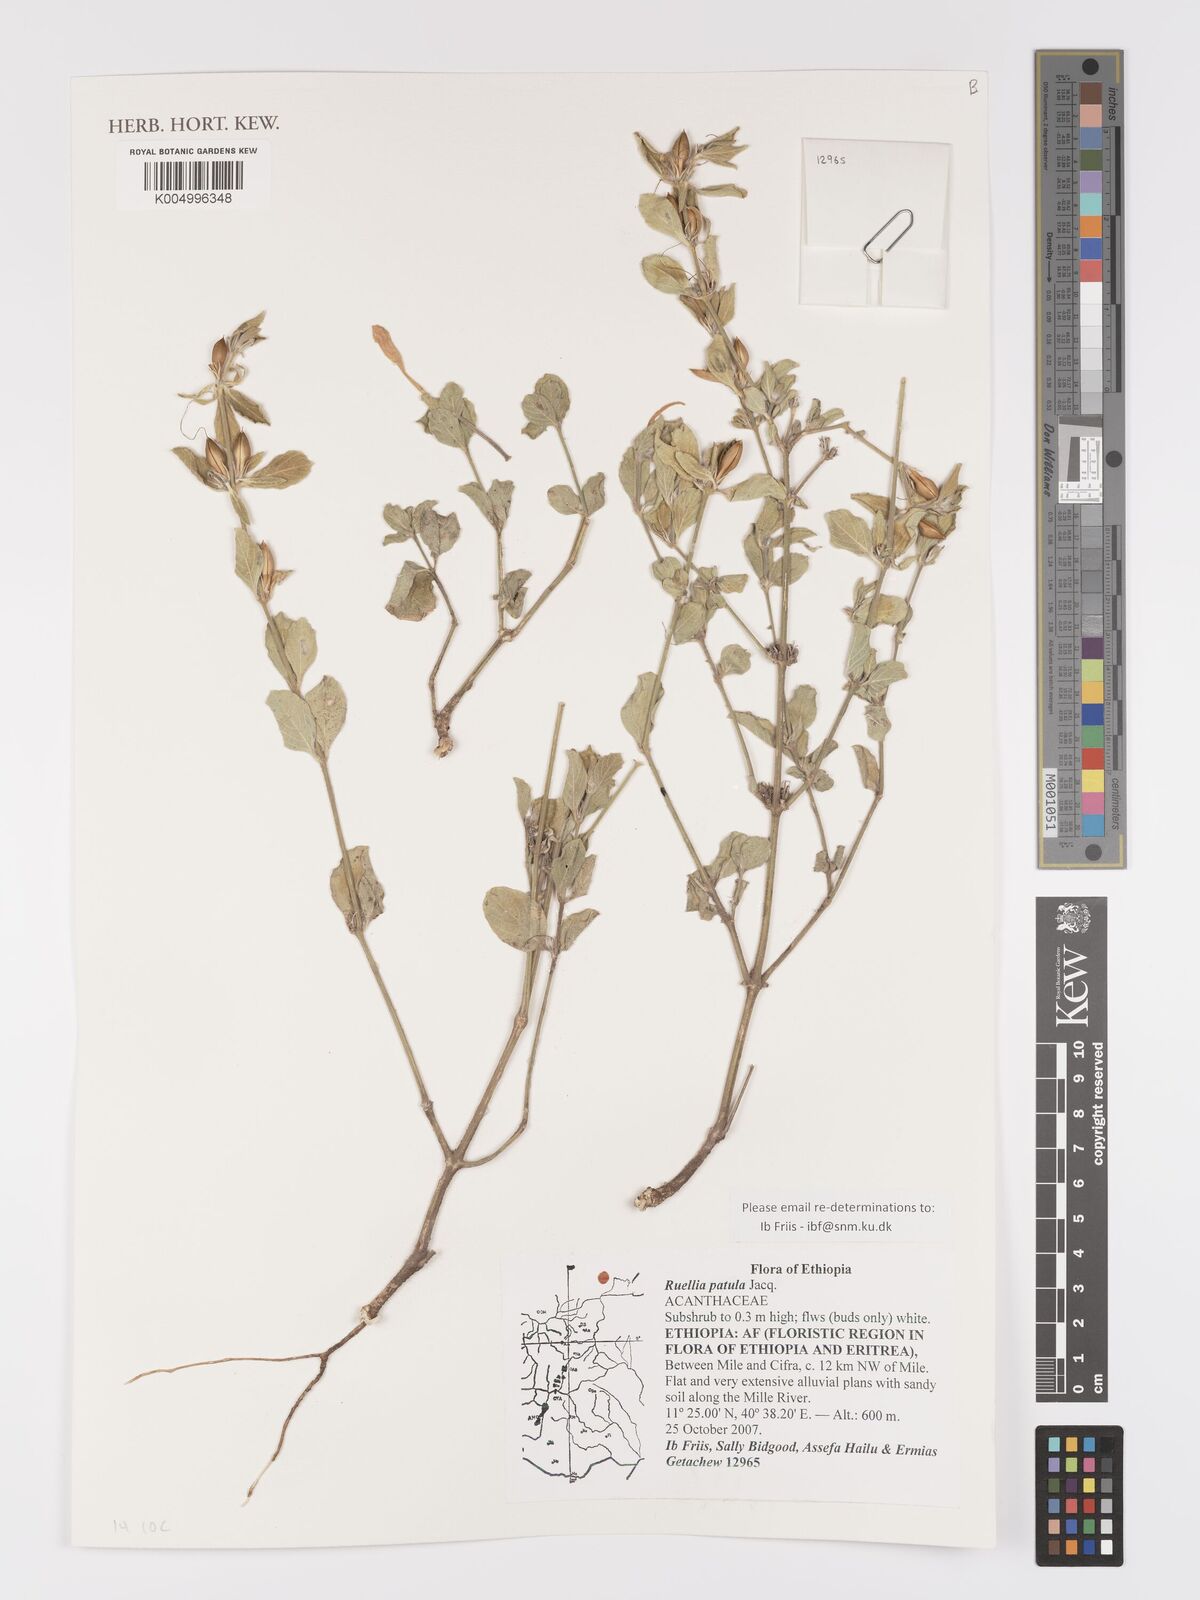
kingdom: Plantae
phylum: Tracheophyta
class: Magnoliopsida
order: Lamiales
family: Acanthaceae
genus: Ruellia
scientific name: Ruellia patula
